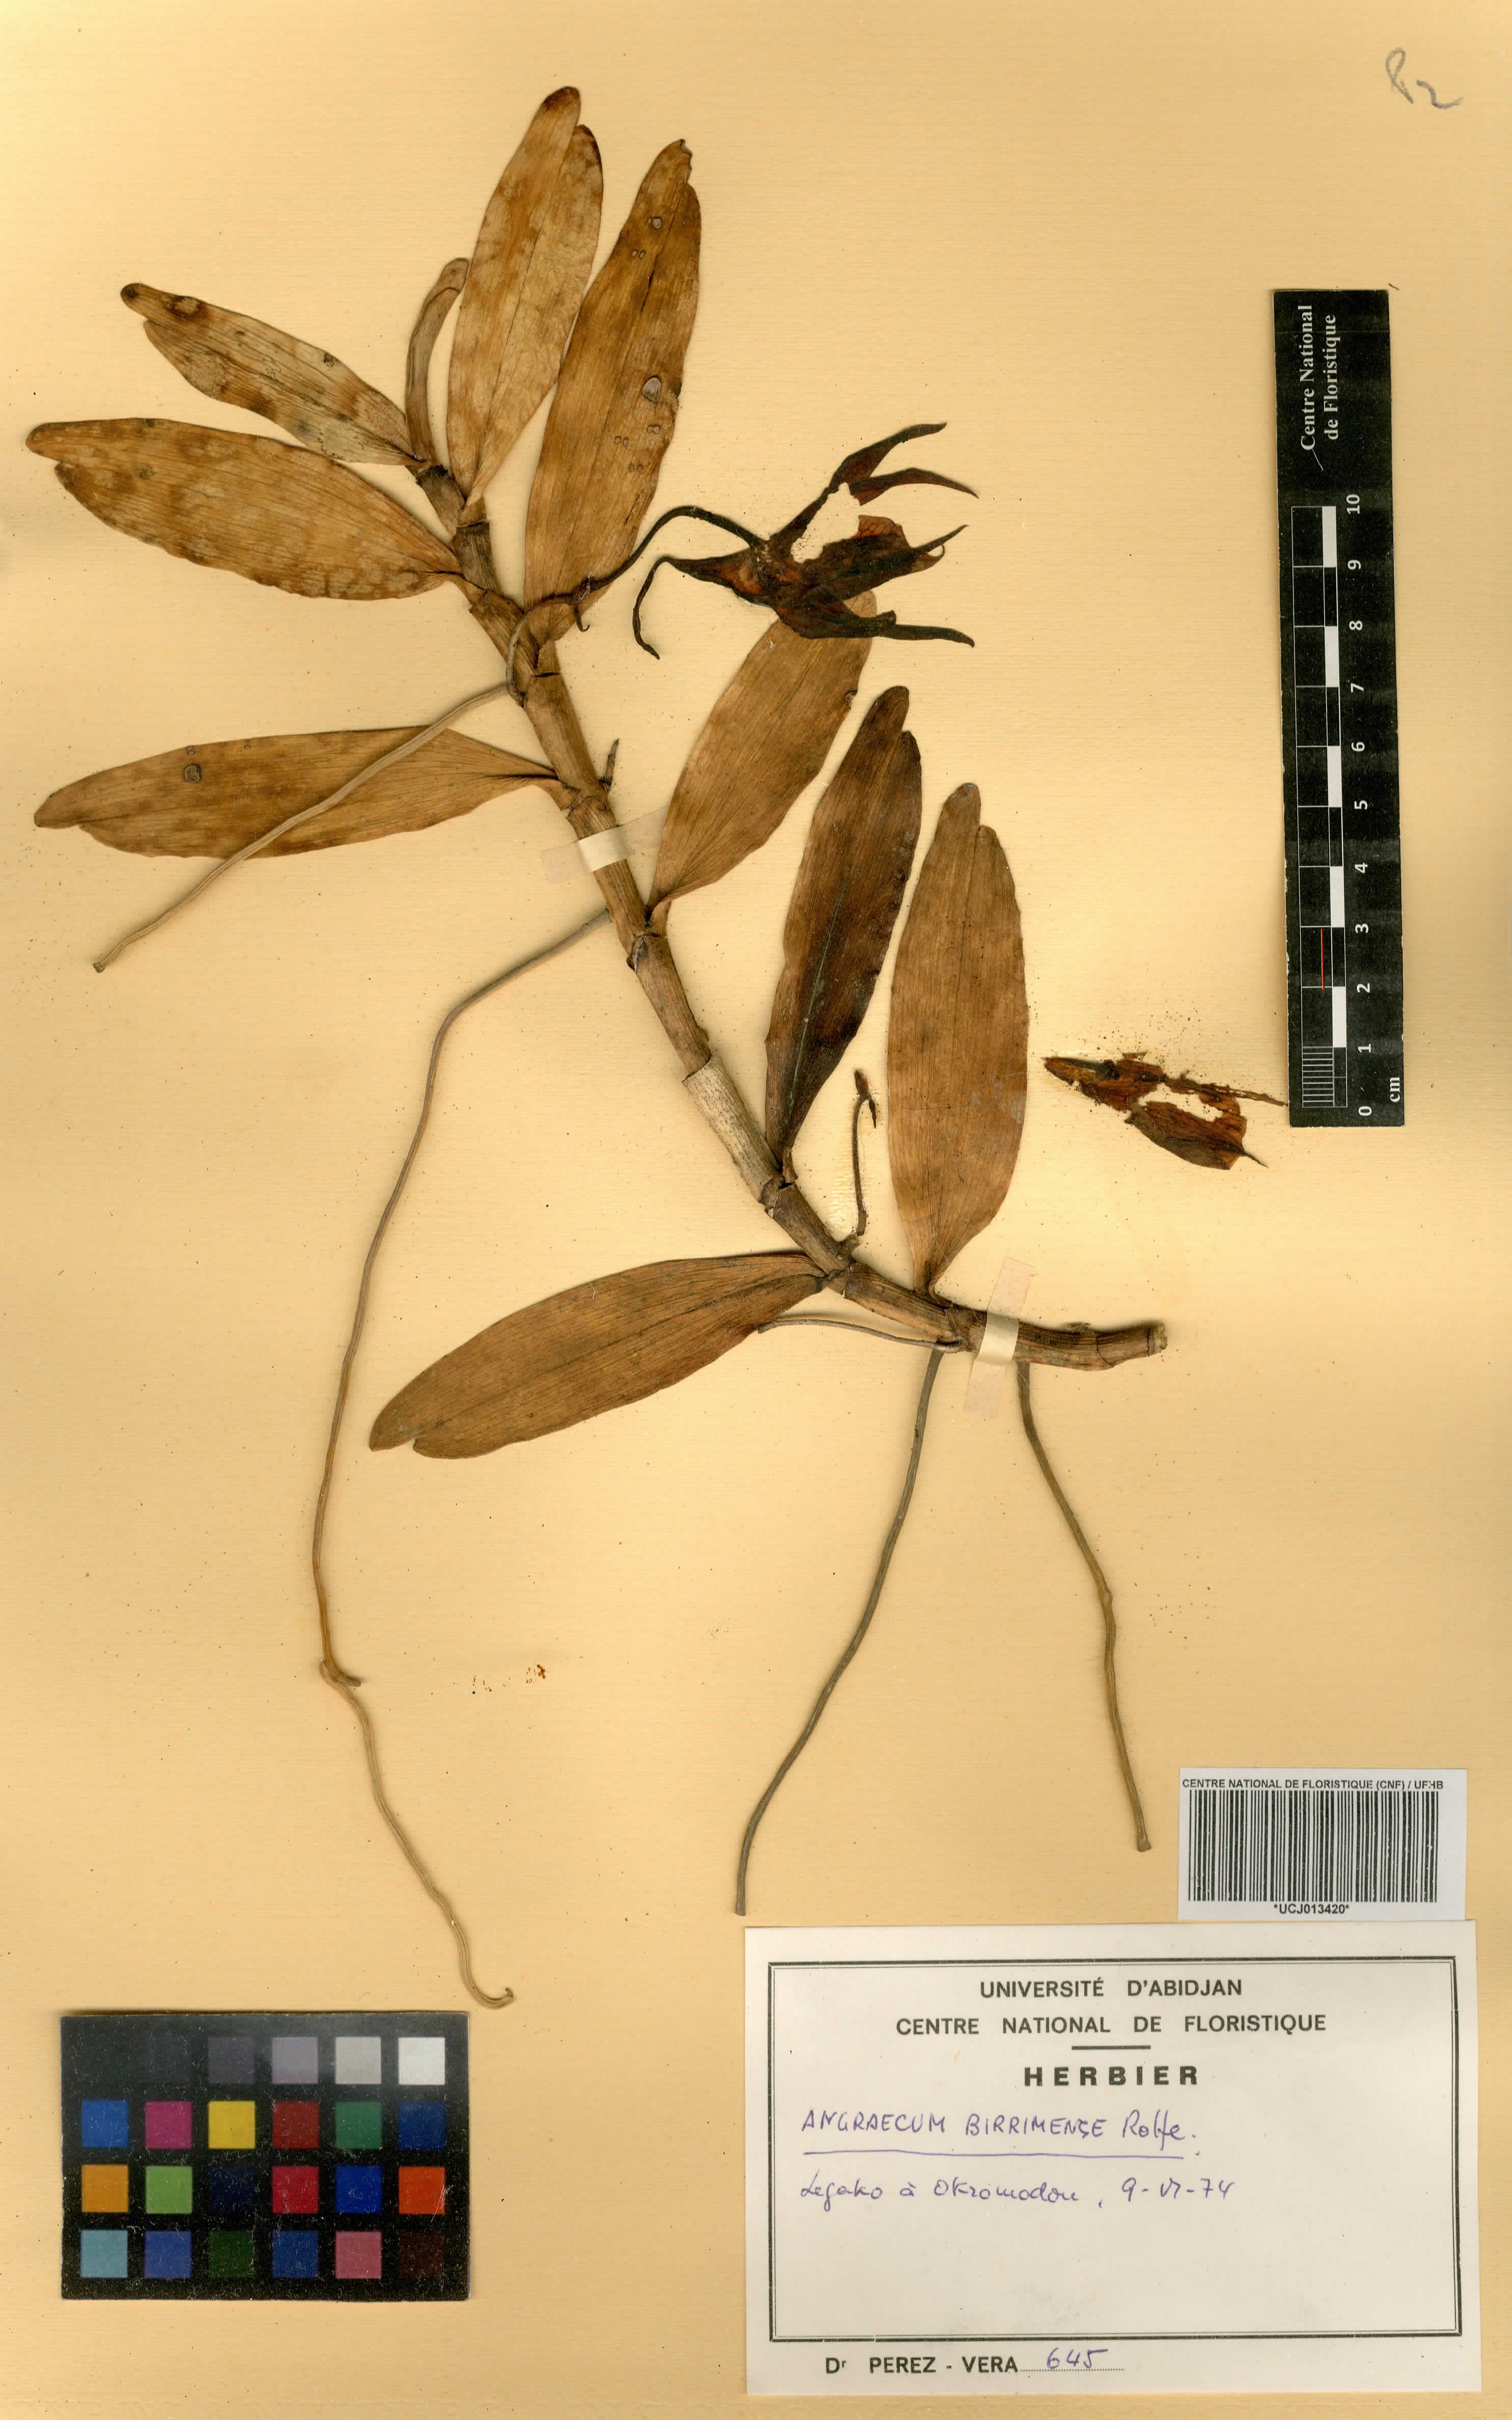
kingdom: Plantae
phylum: Tracheophyta
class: Liliopsida
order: Asparagales
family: Orchidaceae
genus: Angraecum
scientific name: Angraecum birrimense
